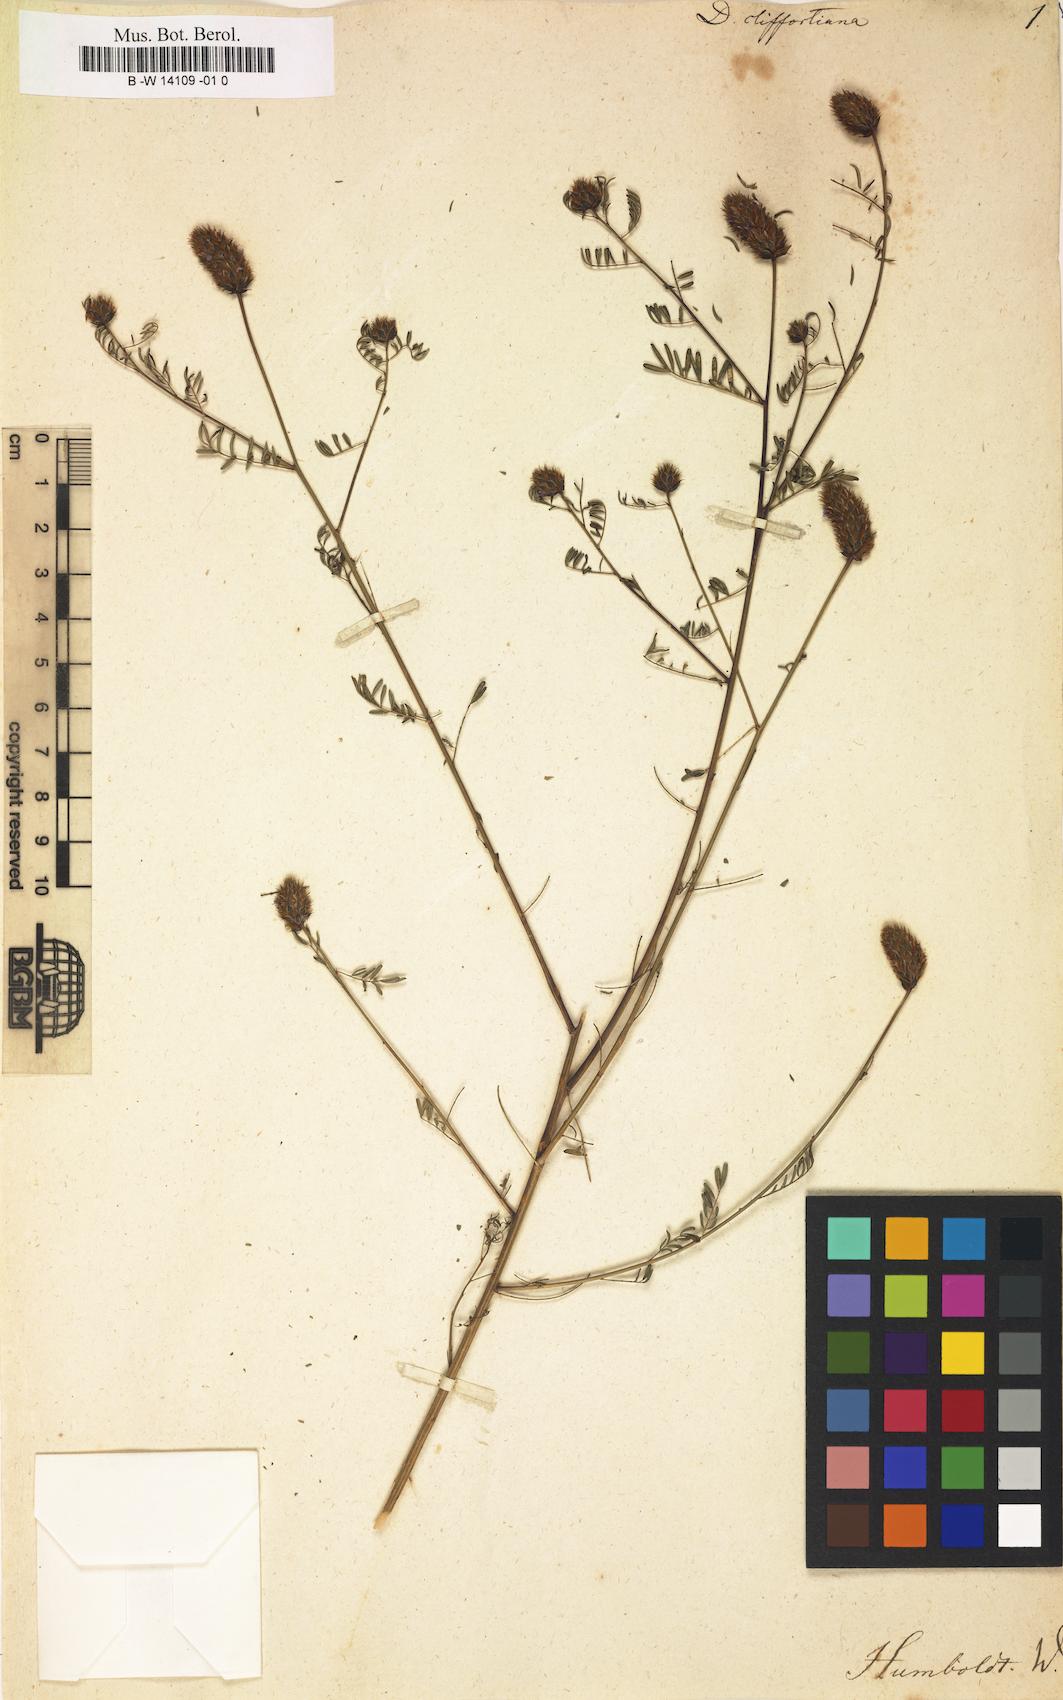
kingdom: Plantae
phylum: Tracheophyta
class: Magnoliopsida
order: Fabales
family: Fabaceae
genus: Dalea
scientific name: Dalea cliffortiana
